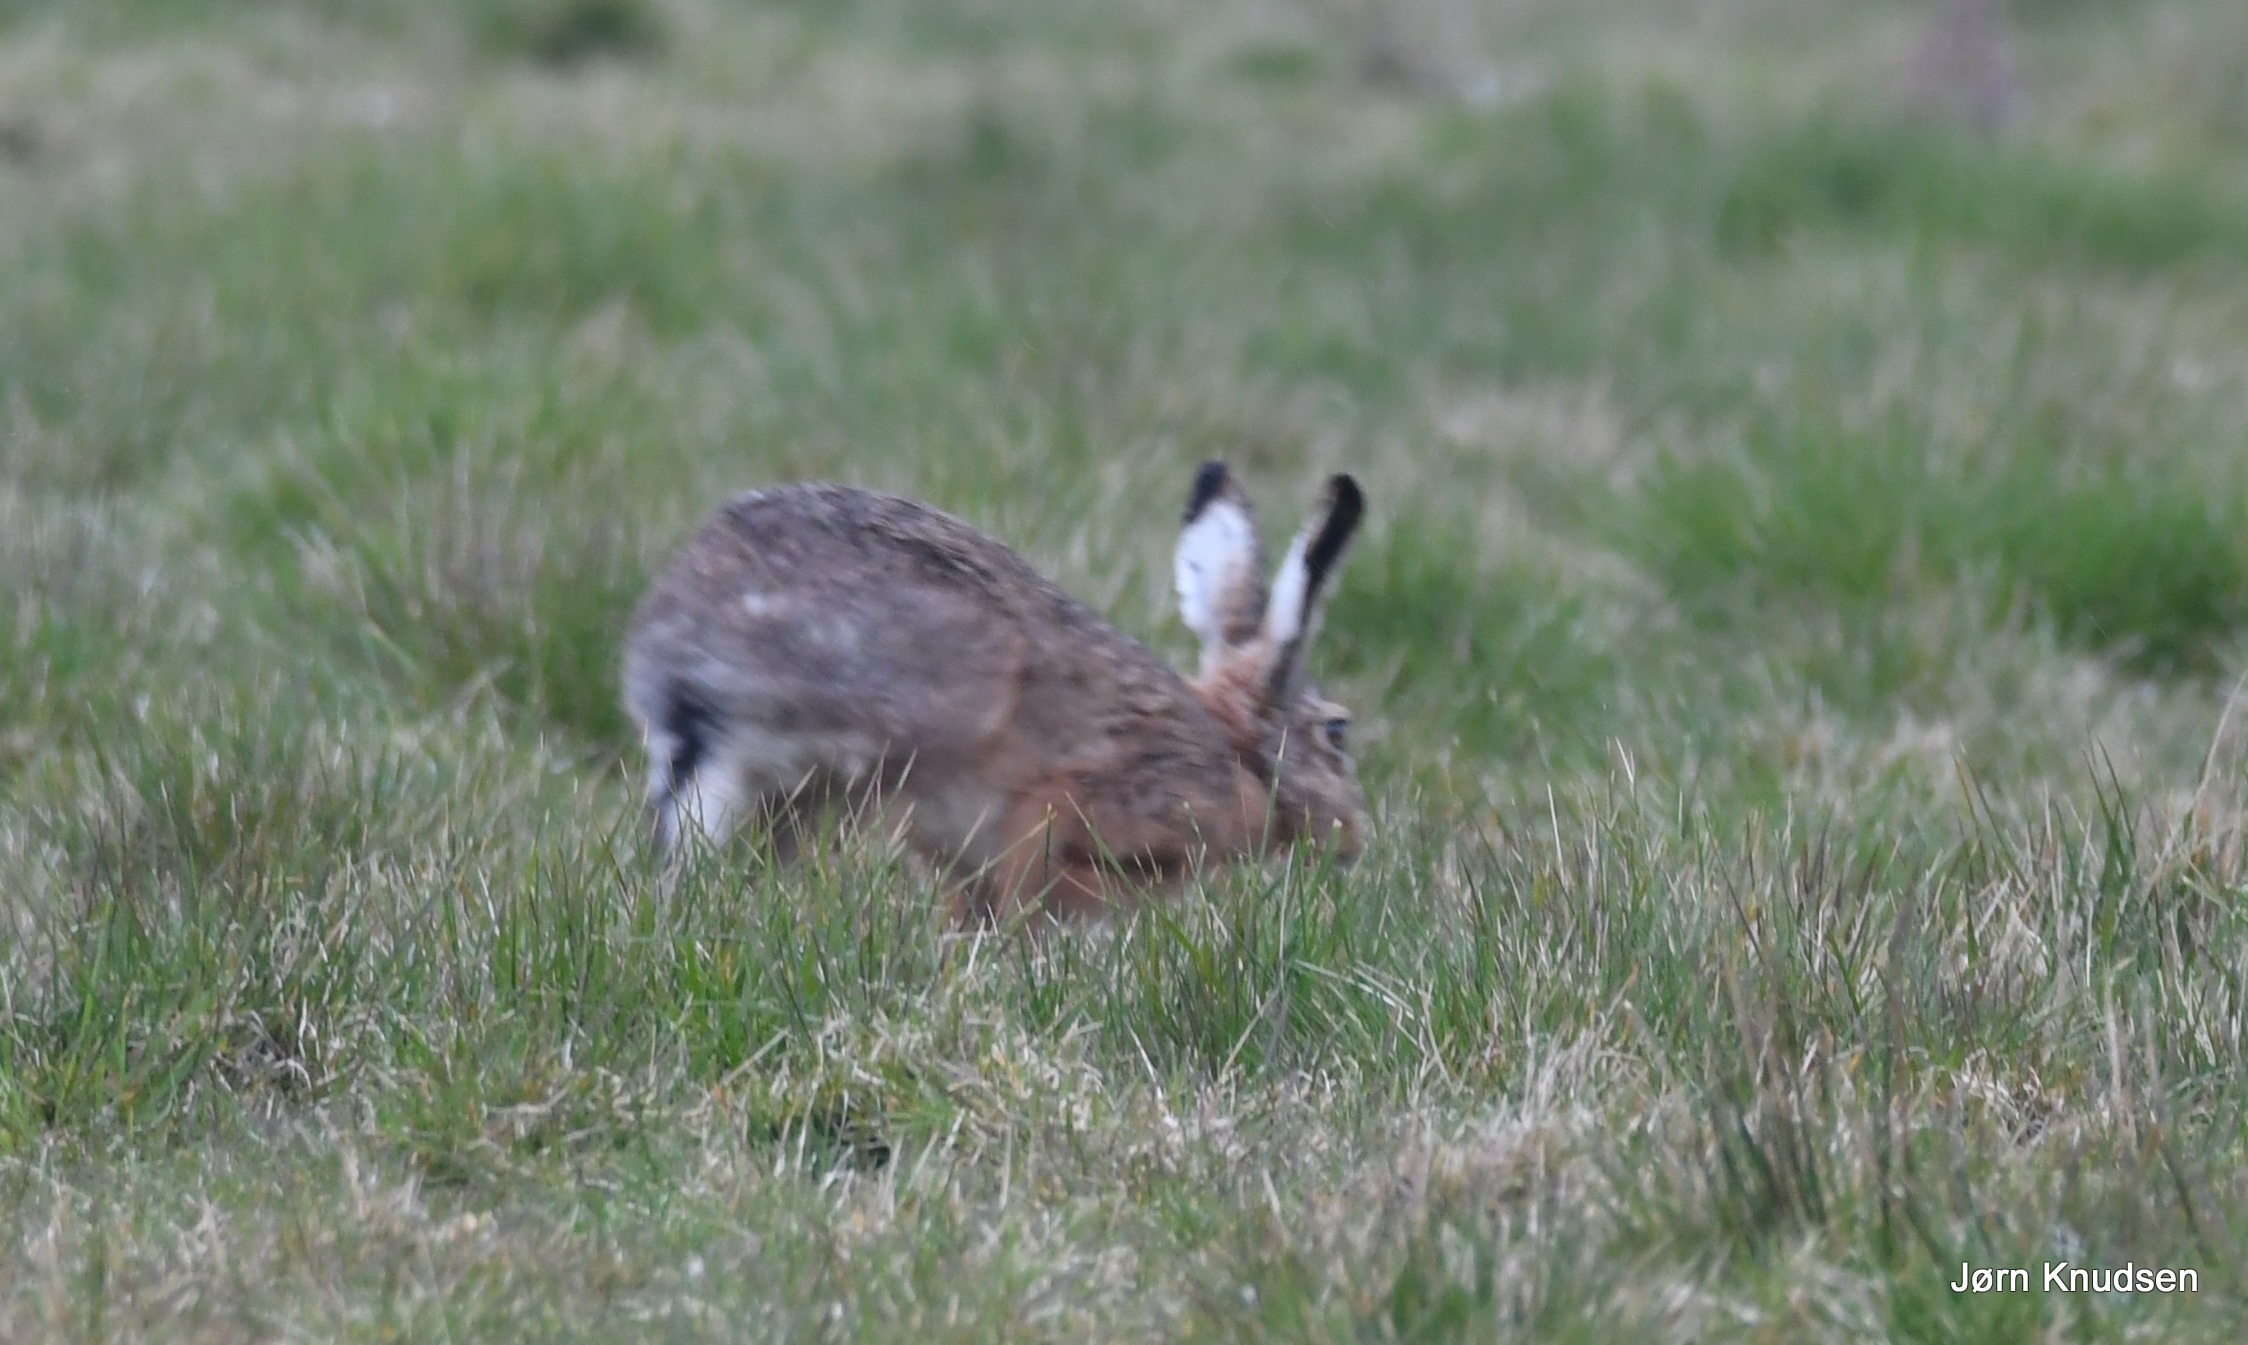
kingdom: Animalia
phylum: Chordata
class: Mammalia
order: Lagomorpha
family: Leporidae
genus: Lepus
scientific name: Lepus europaeus
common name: Hare
